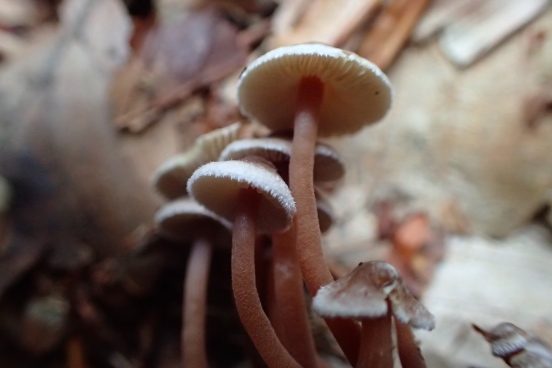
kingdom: Fungi
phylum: Basidiomycota
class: Agaricomycetes
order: Agaricales
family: Inocybaceae
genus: Inocybe
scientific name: Inocybe petiginosa
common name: liden trævlhat
